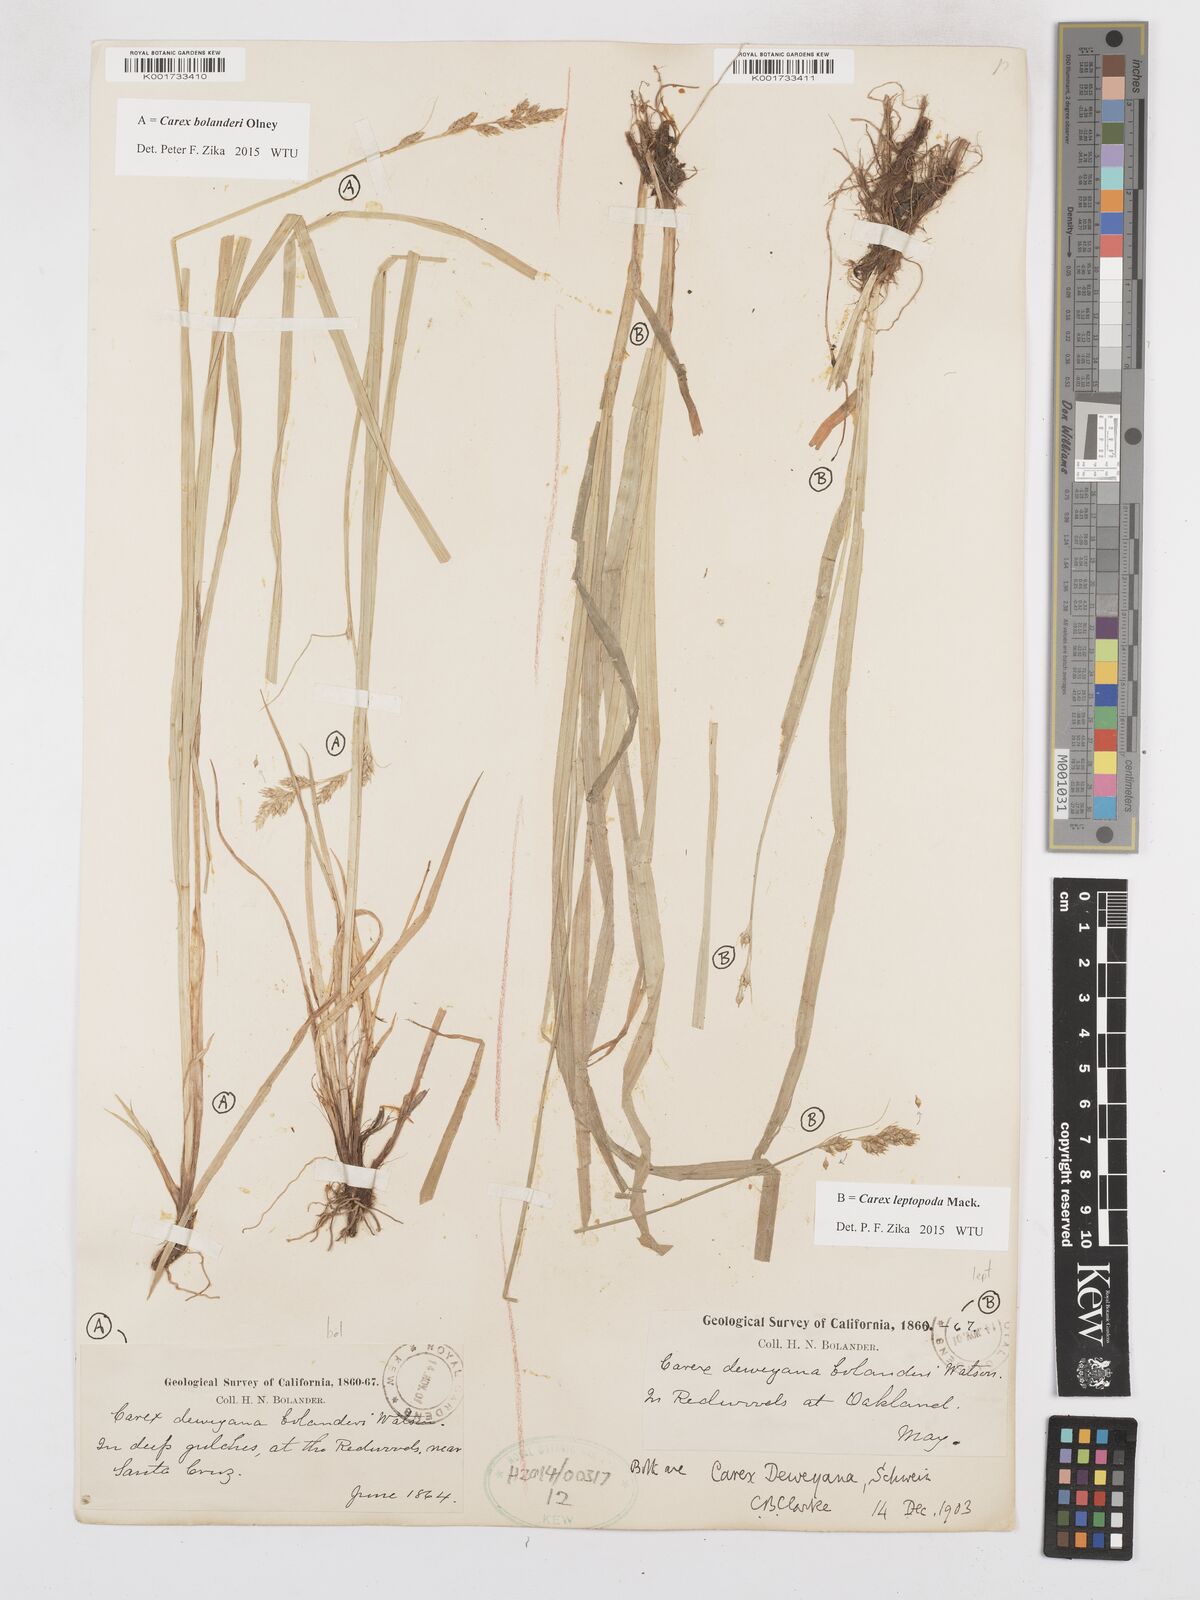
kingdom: Plantae
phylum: Tracheophyta
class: Liliopsida
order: Poales
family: Cyperaceae
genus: Carex
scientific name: Carex leptopoda
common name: Short-scale sedge
